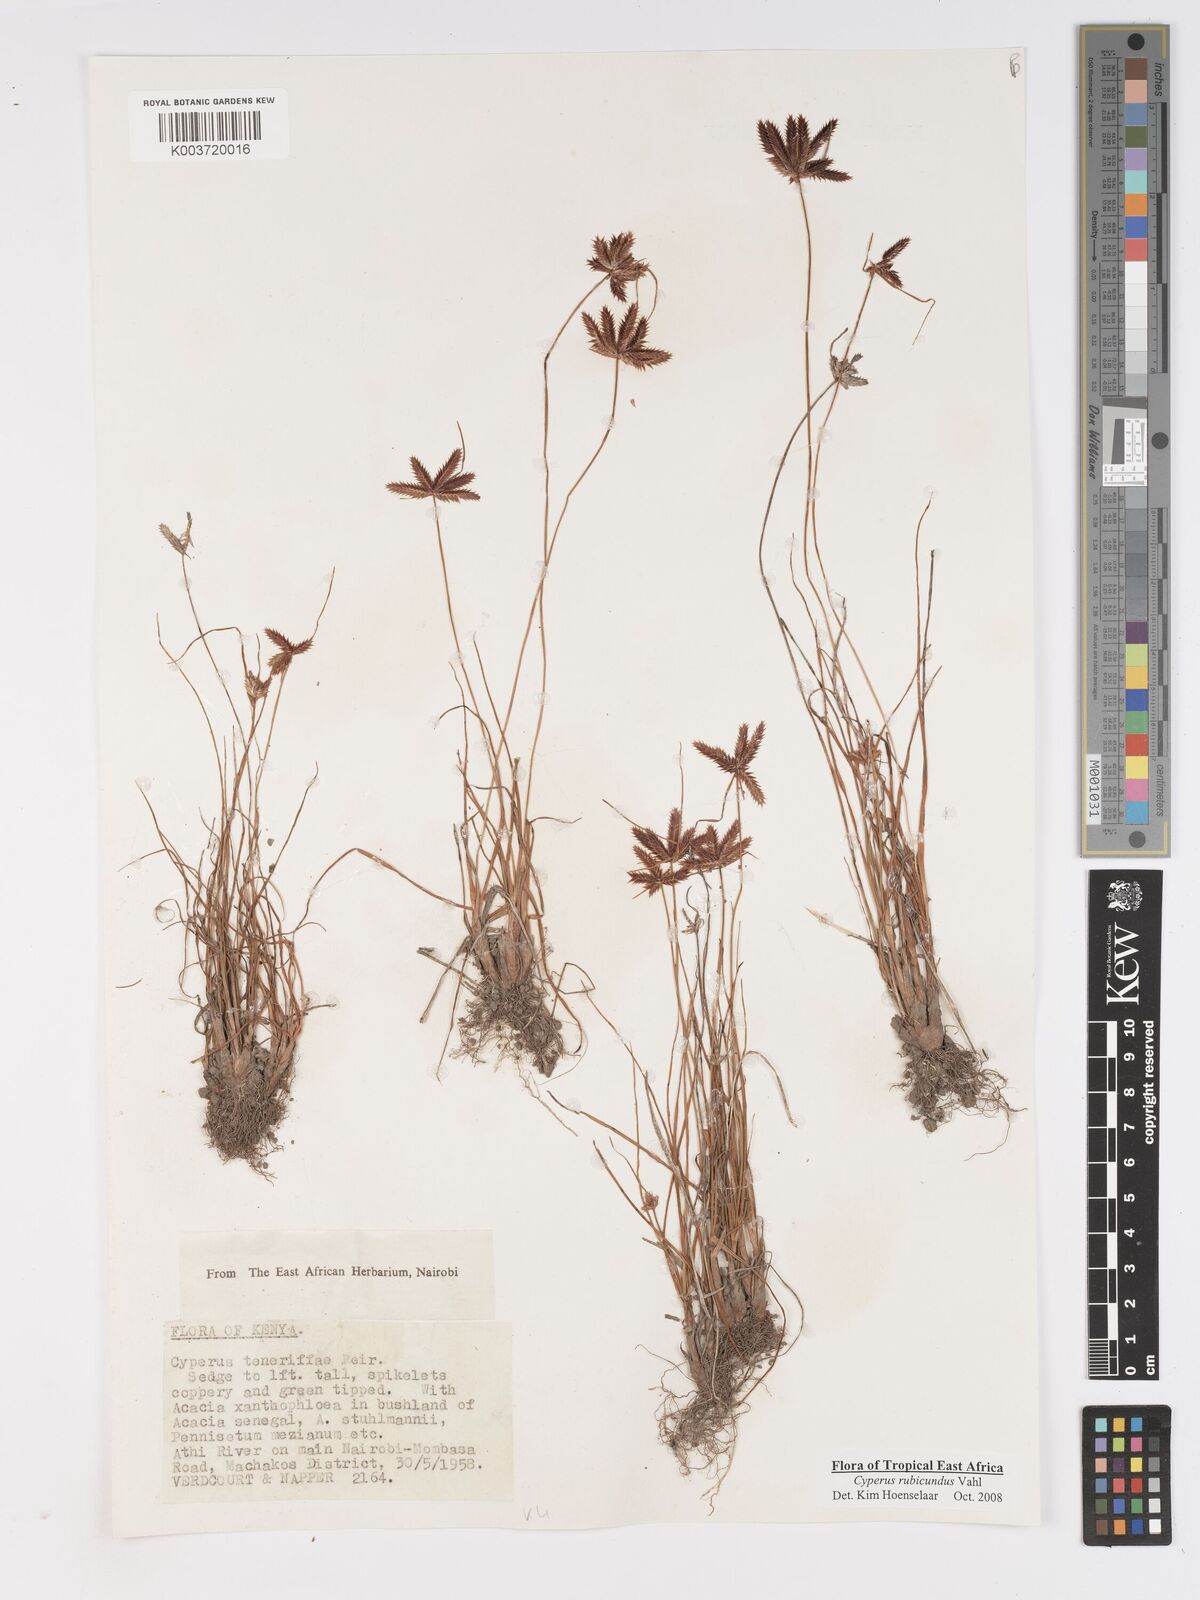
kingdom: Plantae
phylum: Tracheophyta
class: Liliopsida
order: Poales
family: Cyperaceae
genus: Cyperus
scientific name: Cyperus rubicundus
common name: Coco-grass
